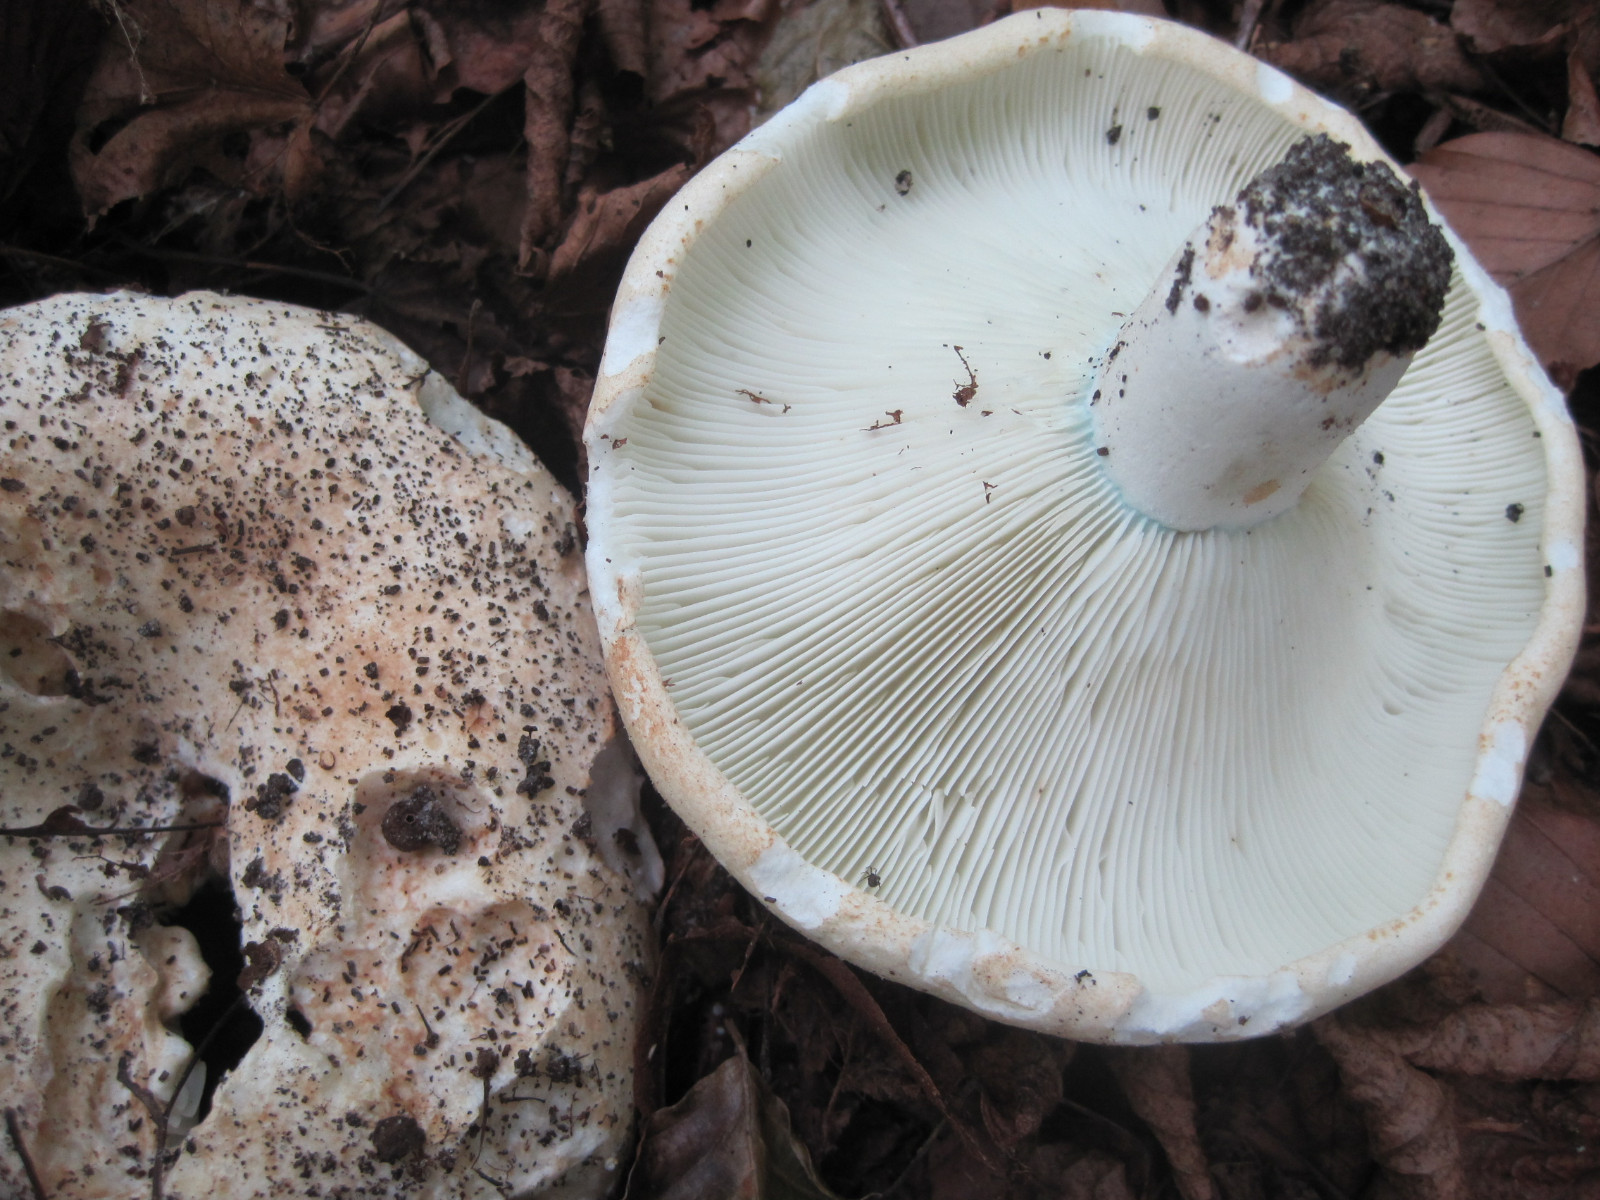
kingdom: Fungi
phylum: Basidiomycota
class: Agaricomycetes
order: Russulales
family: Russulaceae
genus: Russula
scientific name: Russula chloroides
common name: grønhalset tragt-skørhat
